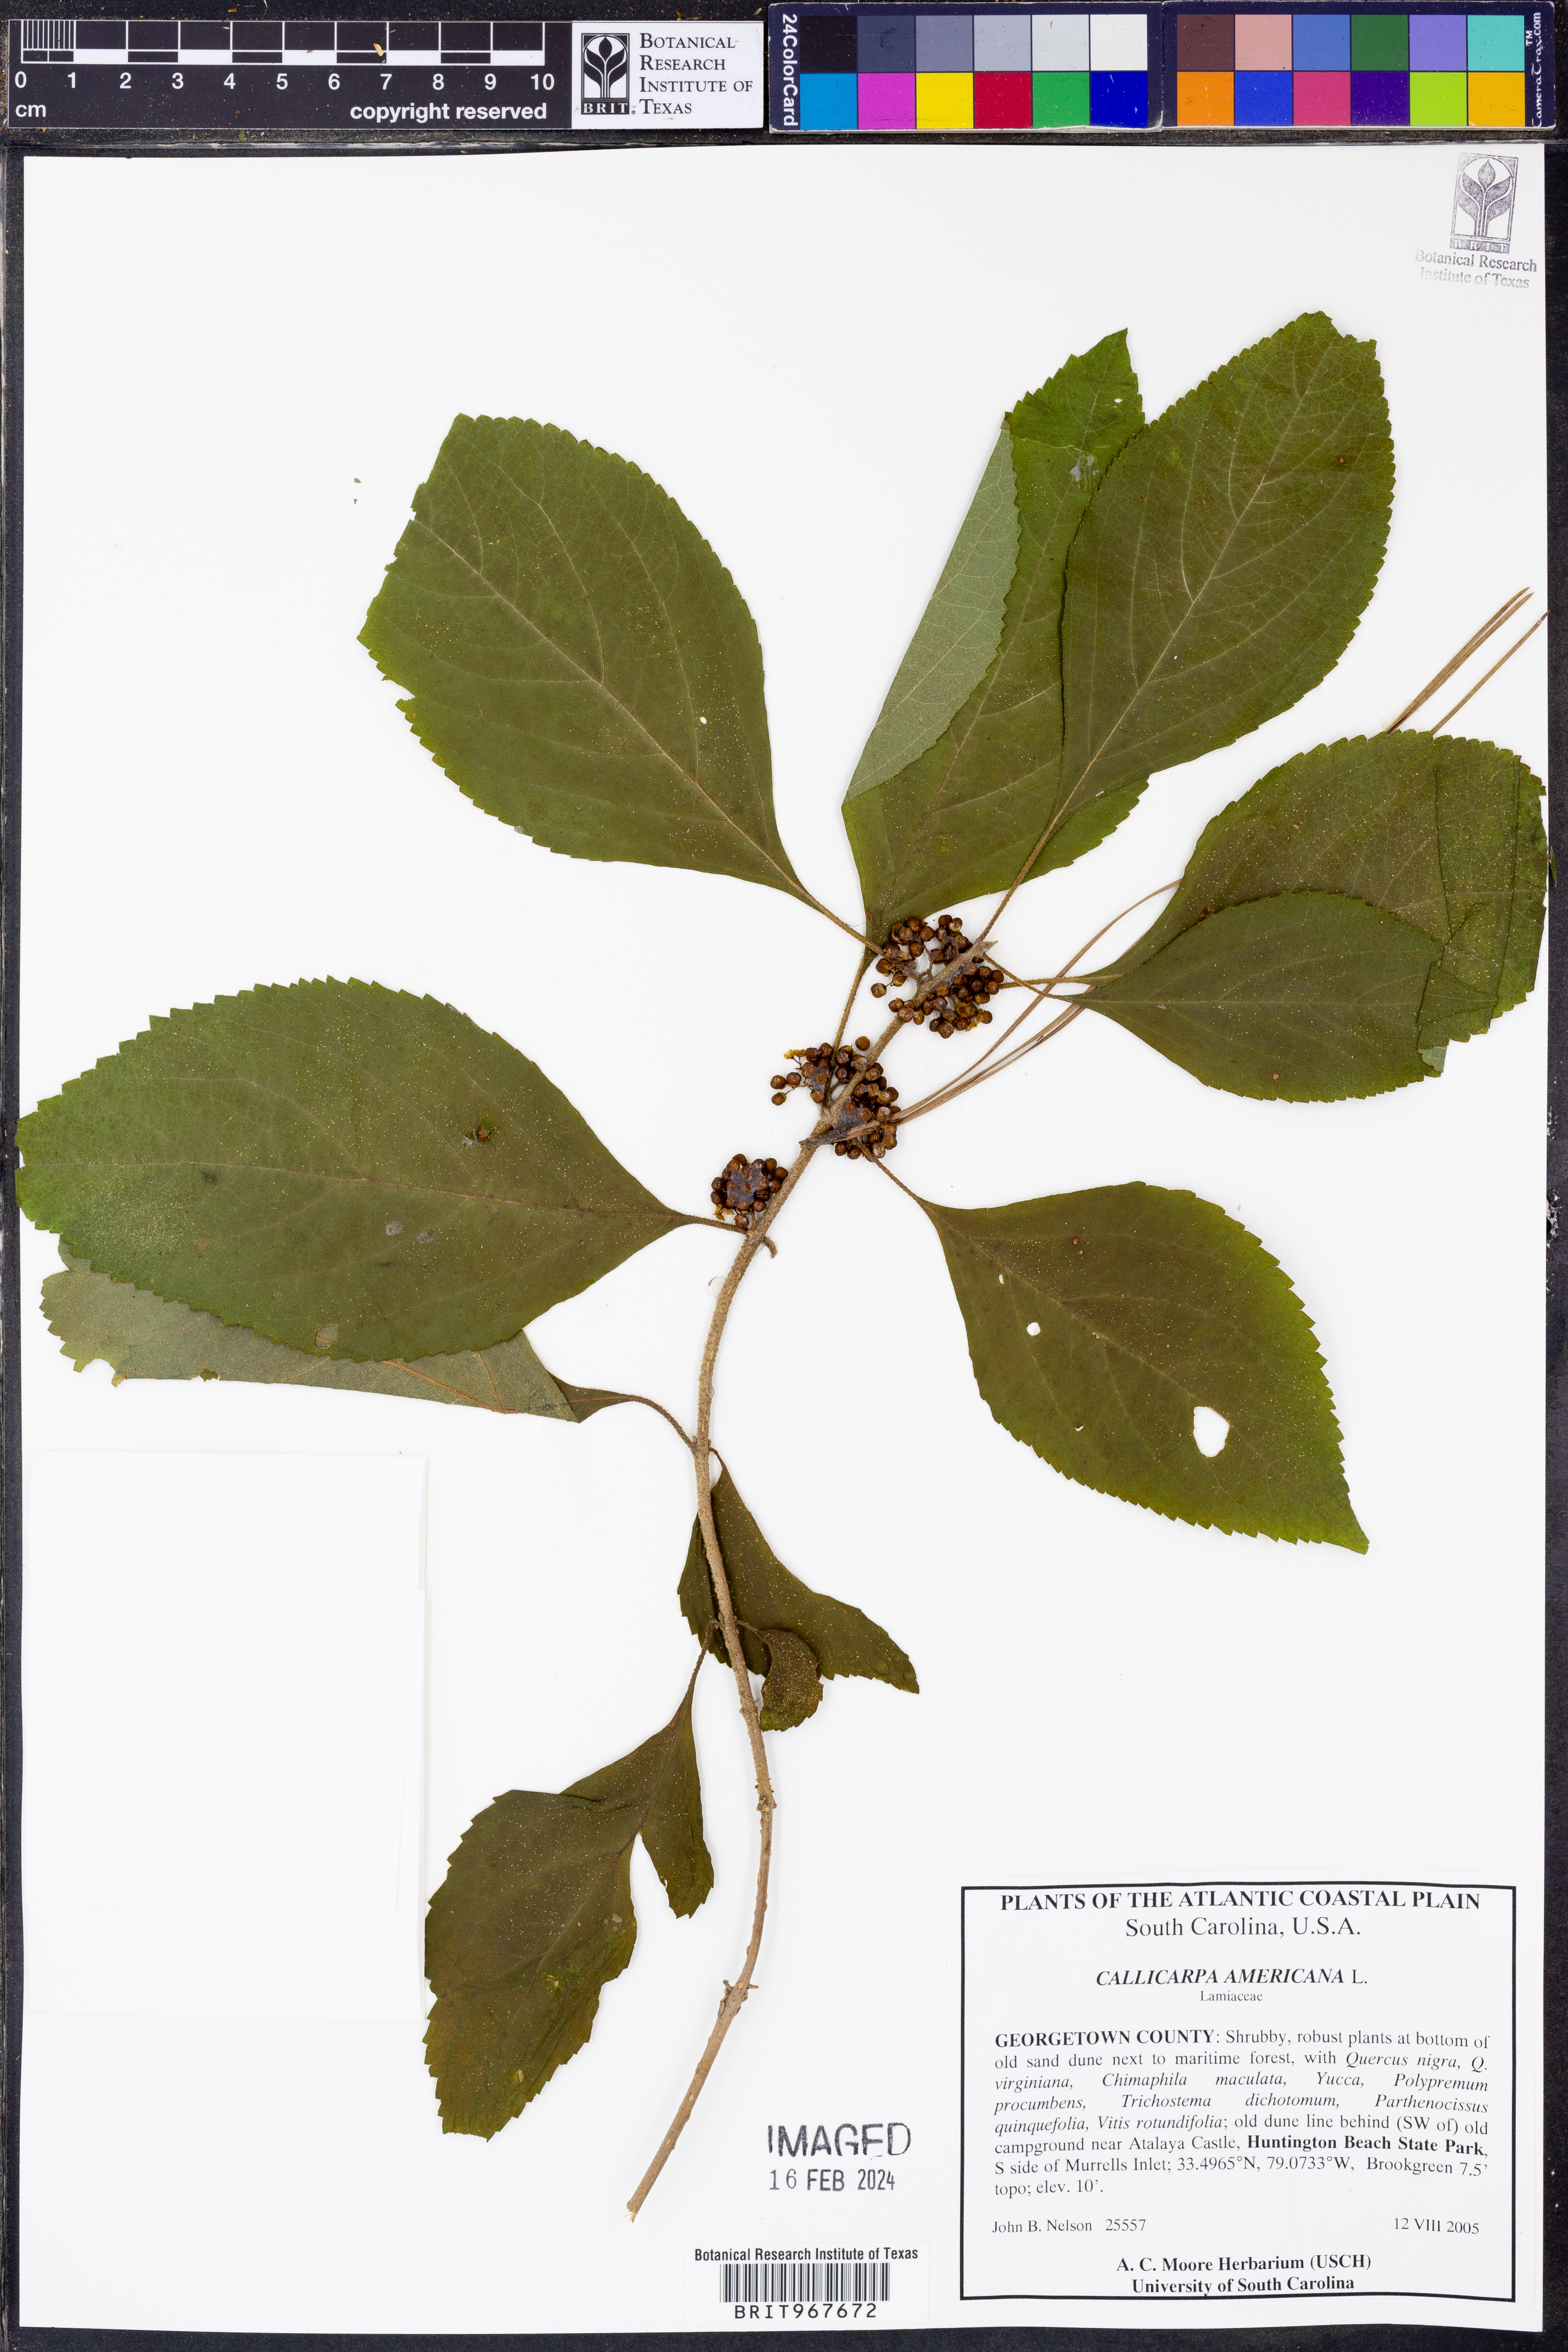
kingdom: Plantae
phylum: Tracheophyta
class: Magnoliopsida
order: Lamiales
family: Lamiaceae
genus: Callicarpa
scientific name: Callicarpa americana
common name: American beautyberry
